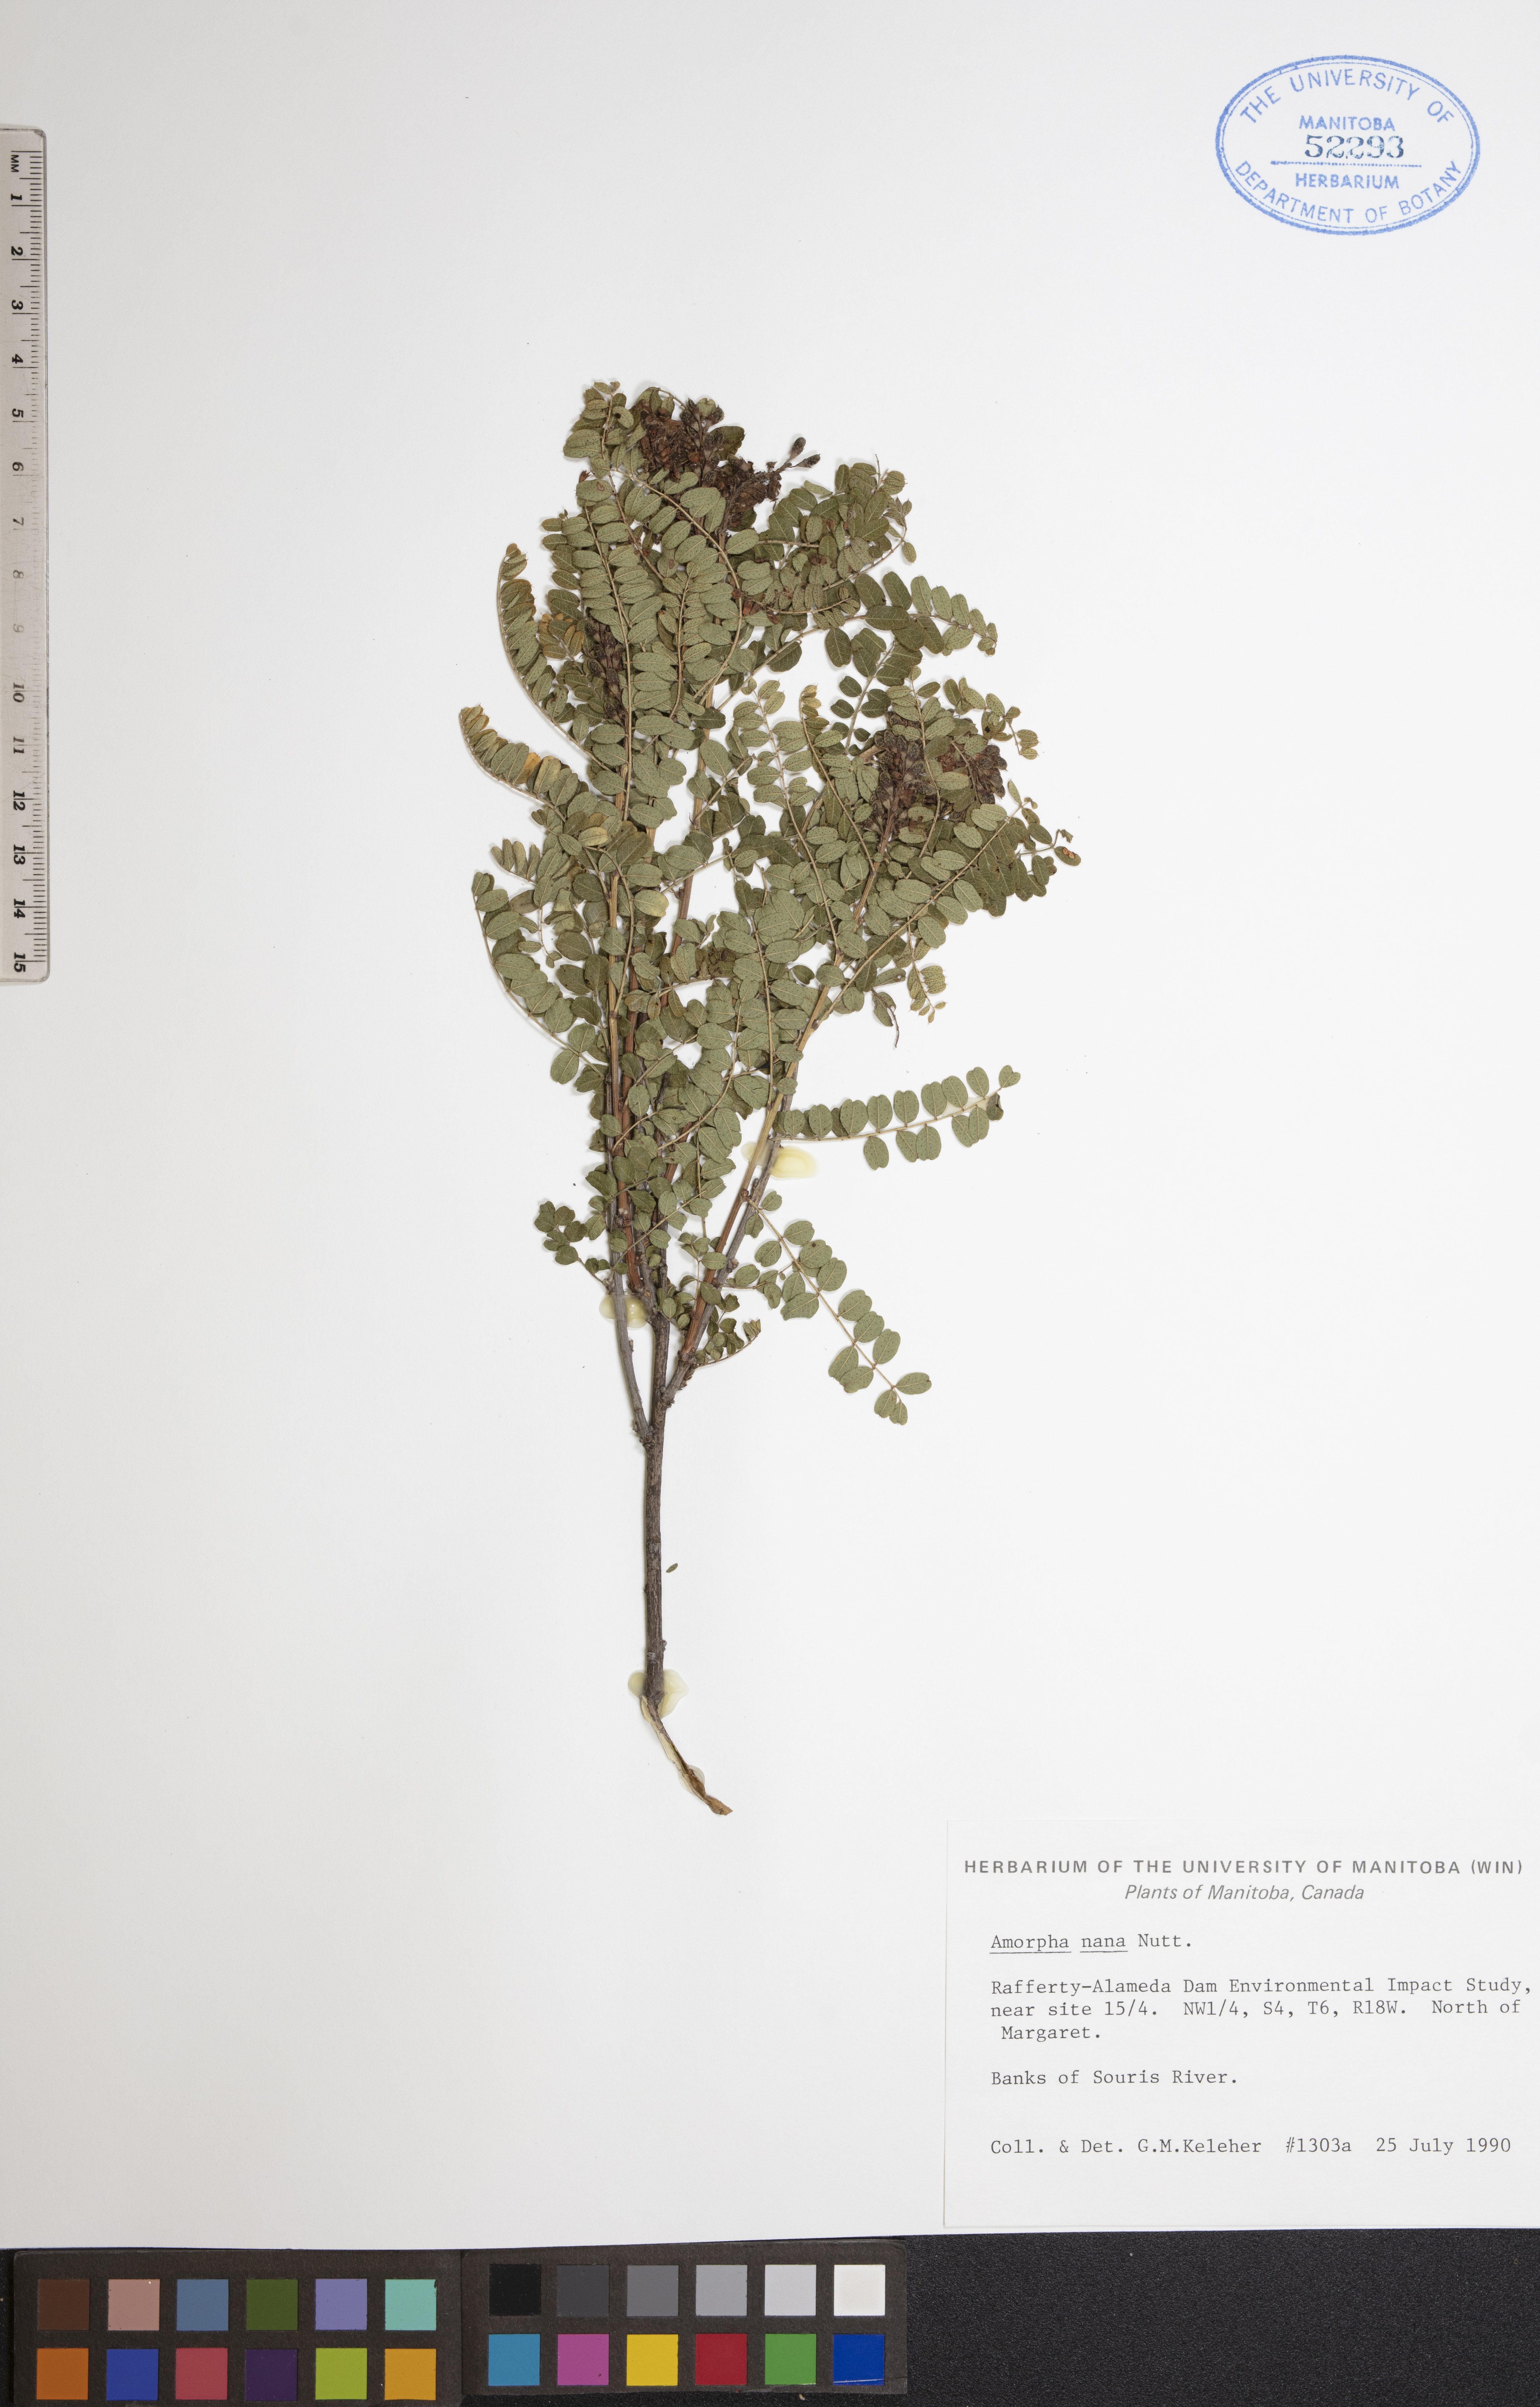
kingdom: Plantae
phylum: Tracheophyta
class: Magnoliopsida
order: Fabales
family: Fabaceae
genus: Amorpha
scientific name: Amorpha nana
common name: Fragrant false indigo
